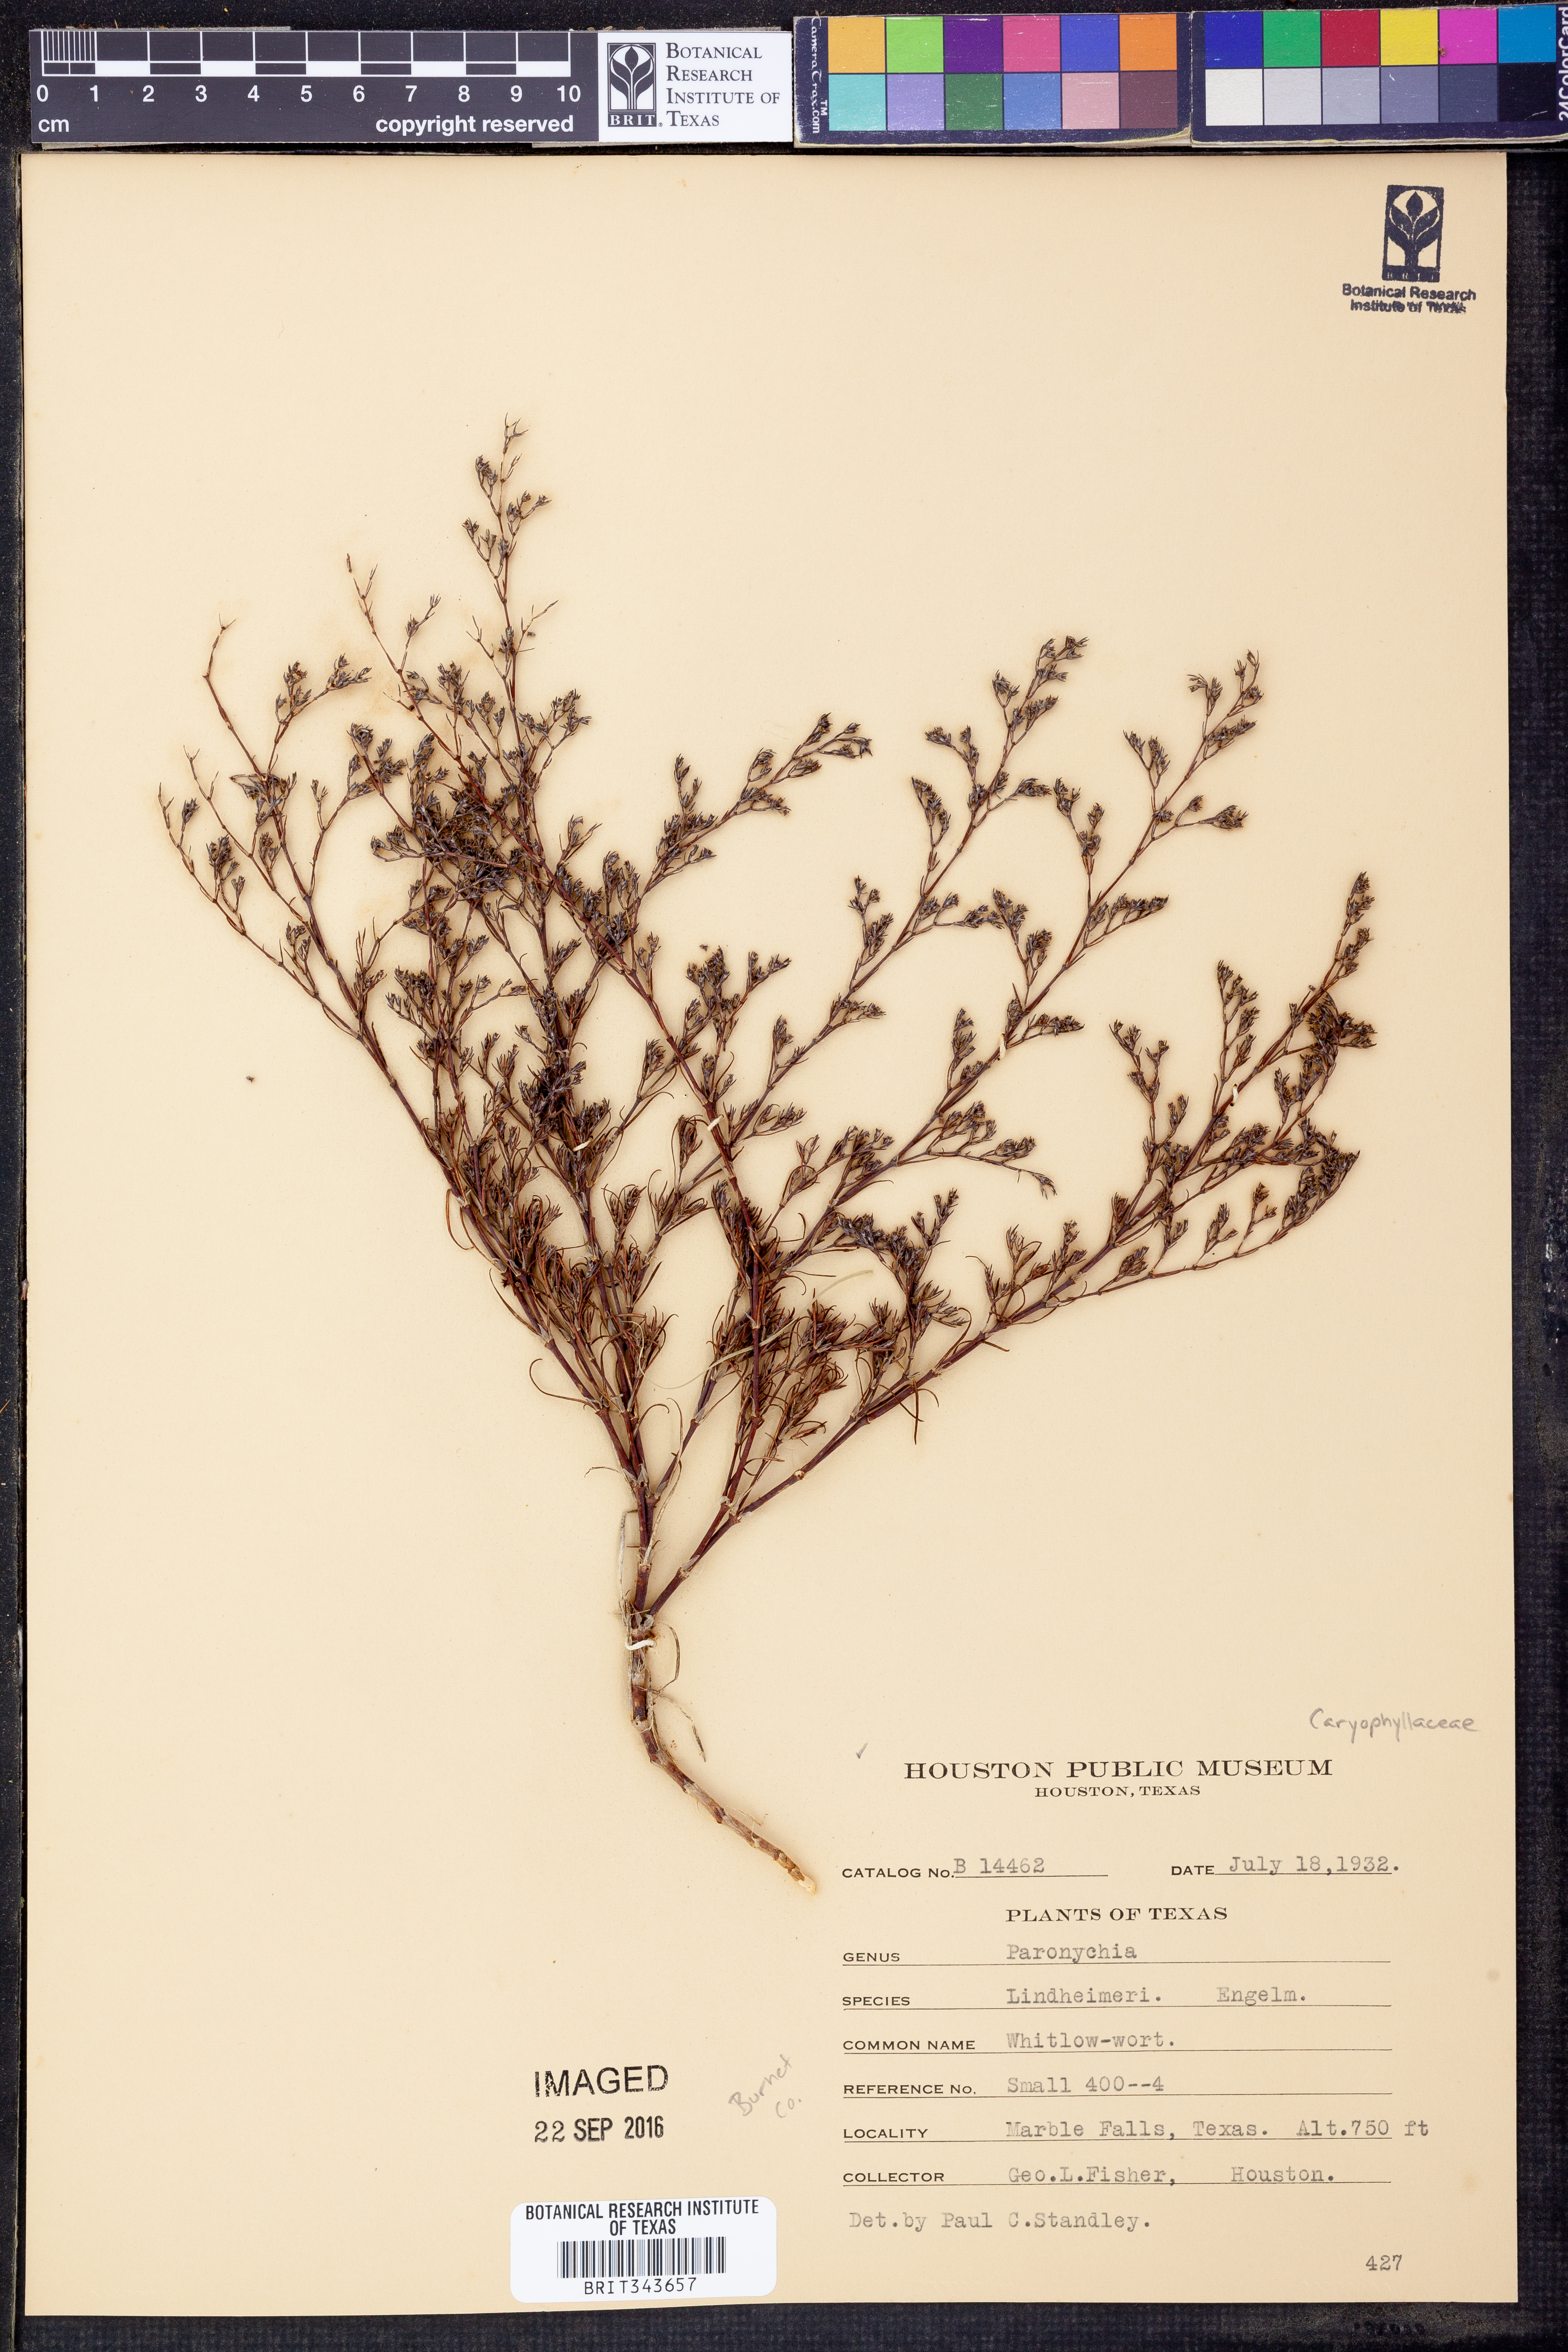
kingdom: Plantae
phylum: Tracheophyta
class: Magnoliopsida
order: Caryophyllales
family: Caryophyllaceae
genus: Paronychia
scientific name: Paronychia lindheimeri
